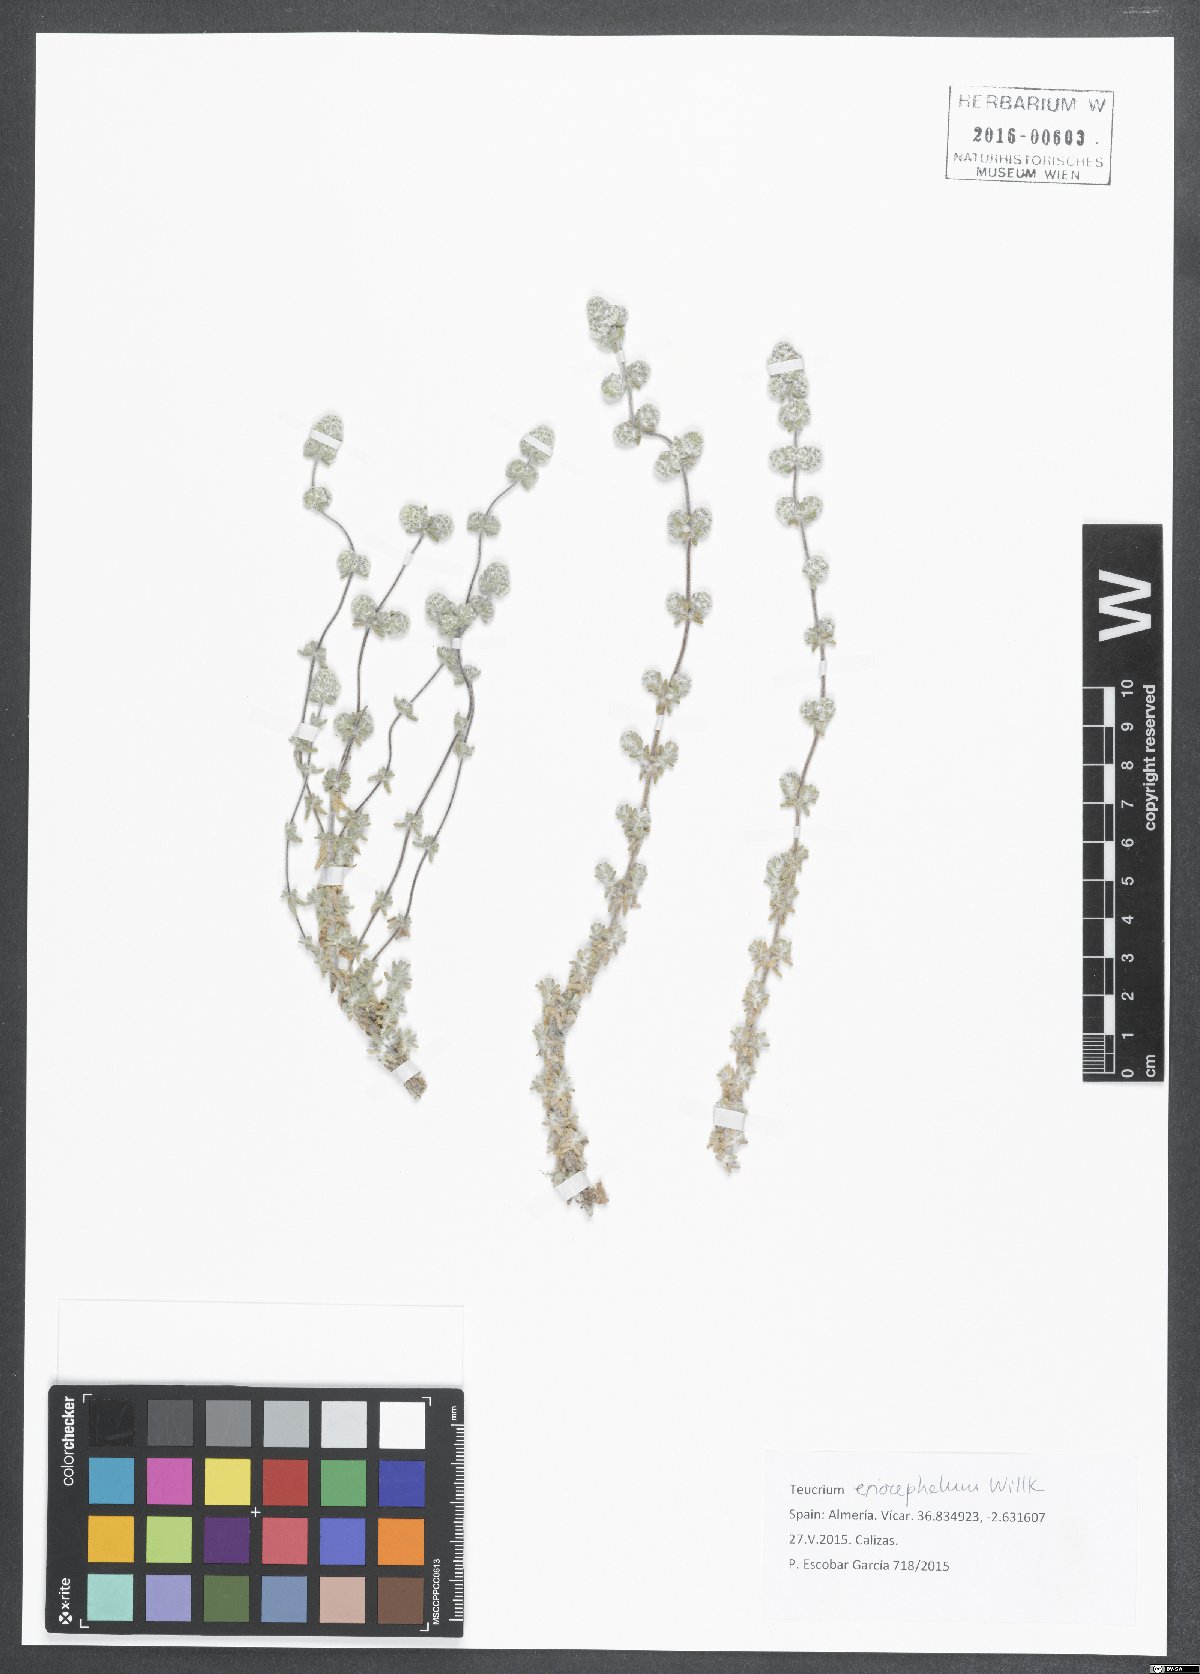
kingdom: Plantae
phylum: Tracheophyta
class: Magnoliopsida
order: Lamiales
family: Lamiaceae
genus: Teucrium
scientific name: Teucrium eriocephalum
